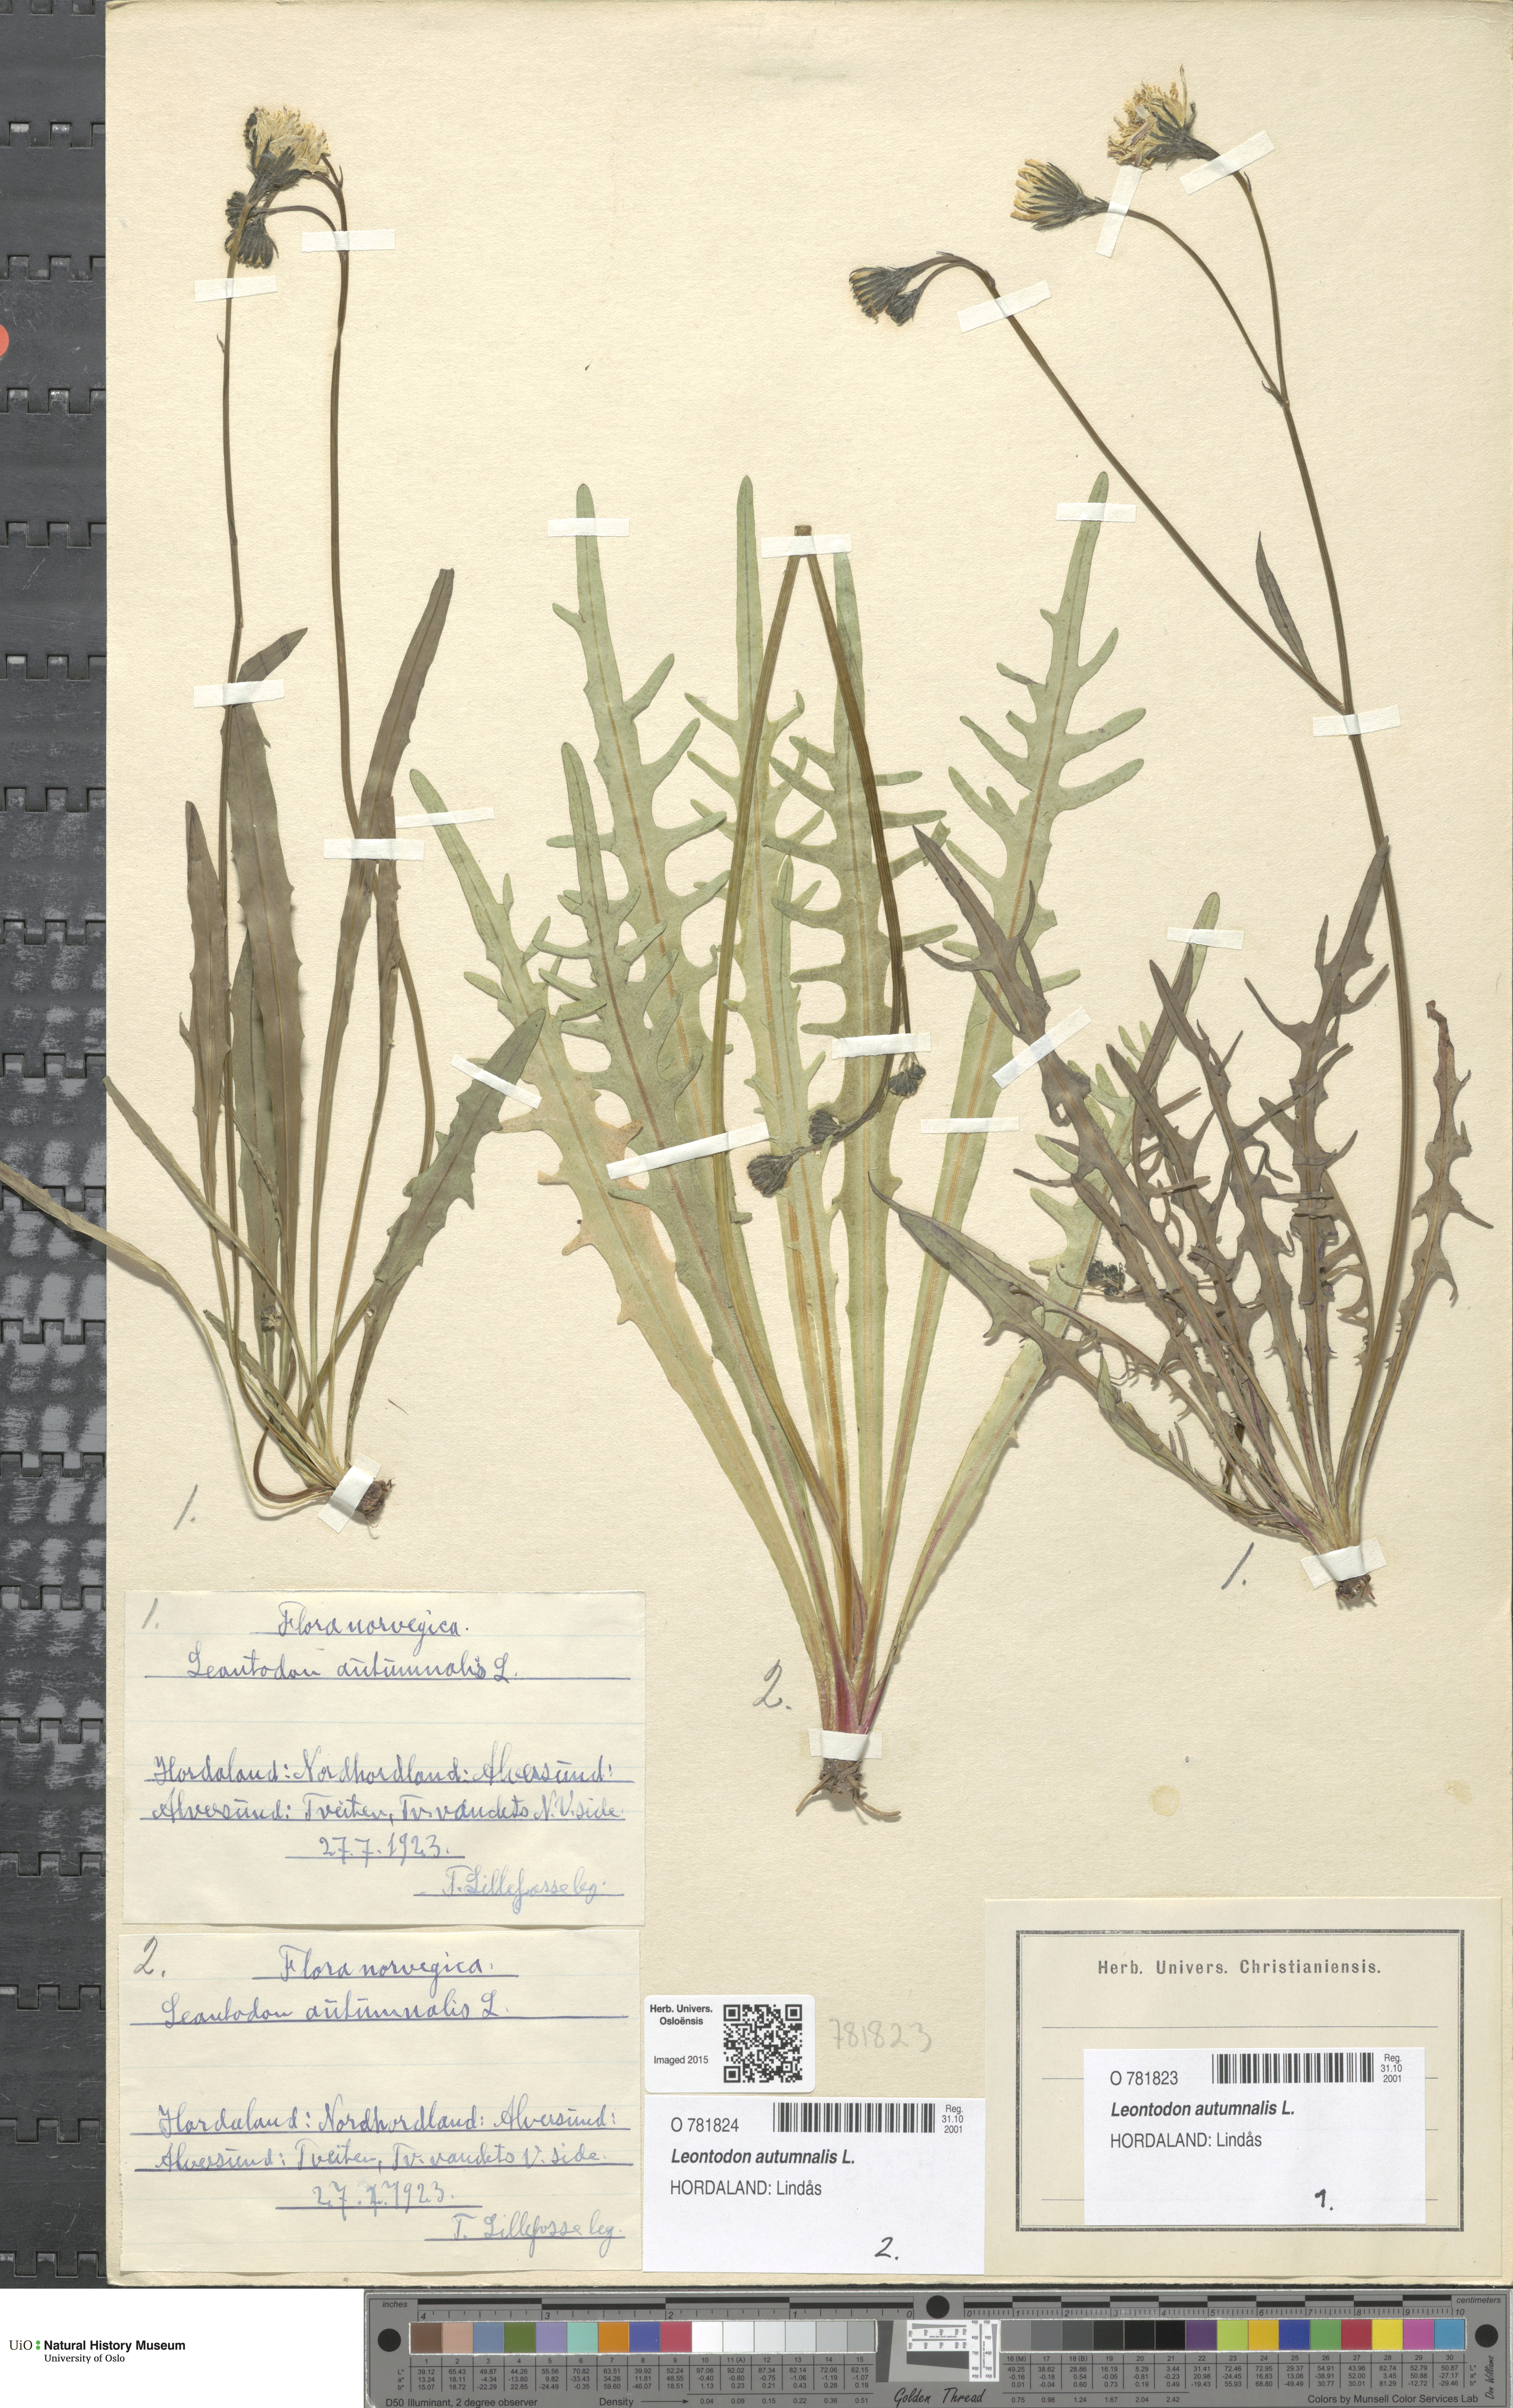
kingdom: Plantae
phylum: Tracheophyta
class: Magnoliopsida
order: Asterales
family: Asteraceae
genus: Scorzoneroides
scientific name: Scorzoneroides autumnalis
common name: Autumn hawkbit
